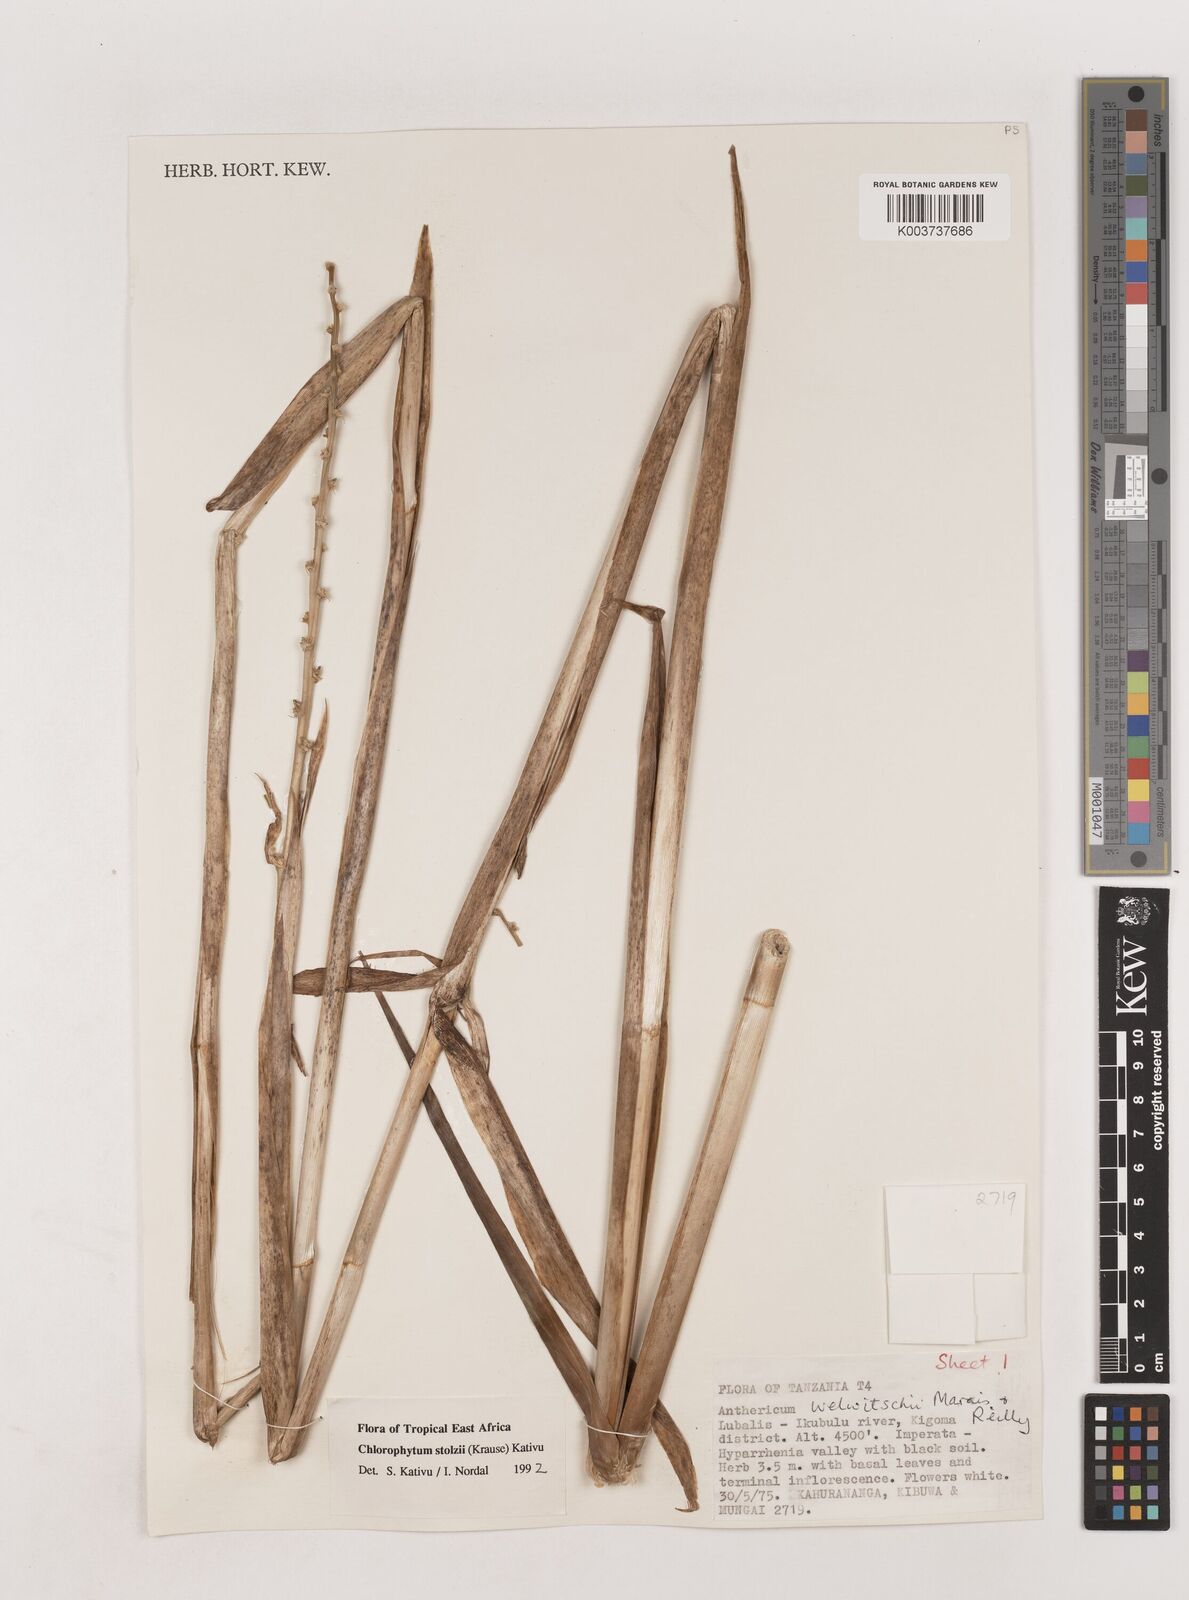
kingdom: Plantae
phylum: Tracheophyta
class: Liliopsida
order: Asparagales
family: Asparagaceae
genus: Chlorophytum
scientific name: Chlorophytum stolzii
